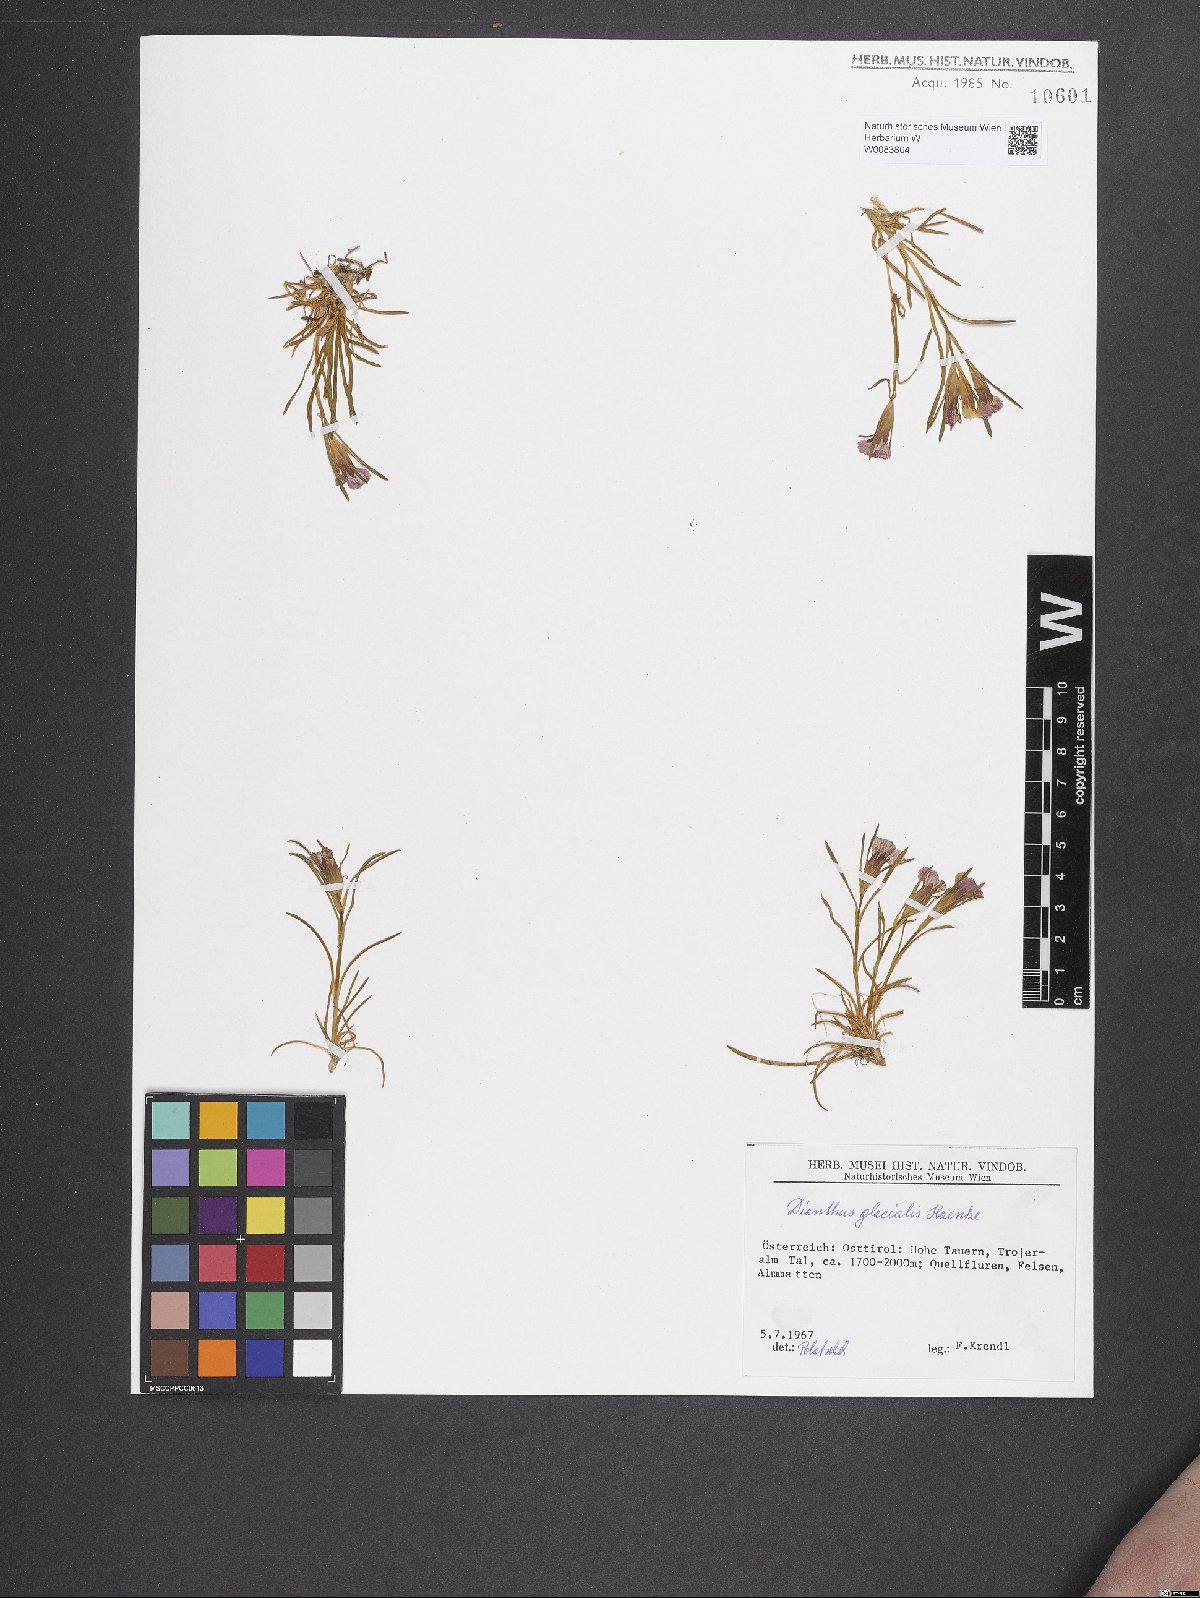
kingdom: Plantae
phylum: Tracheophyta
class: Magnoliopsida
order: Caryophyllales
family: Caryophyllaceae
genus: Dianthus
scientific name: Dianthus glacialis
